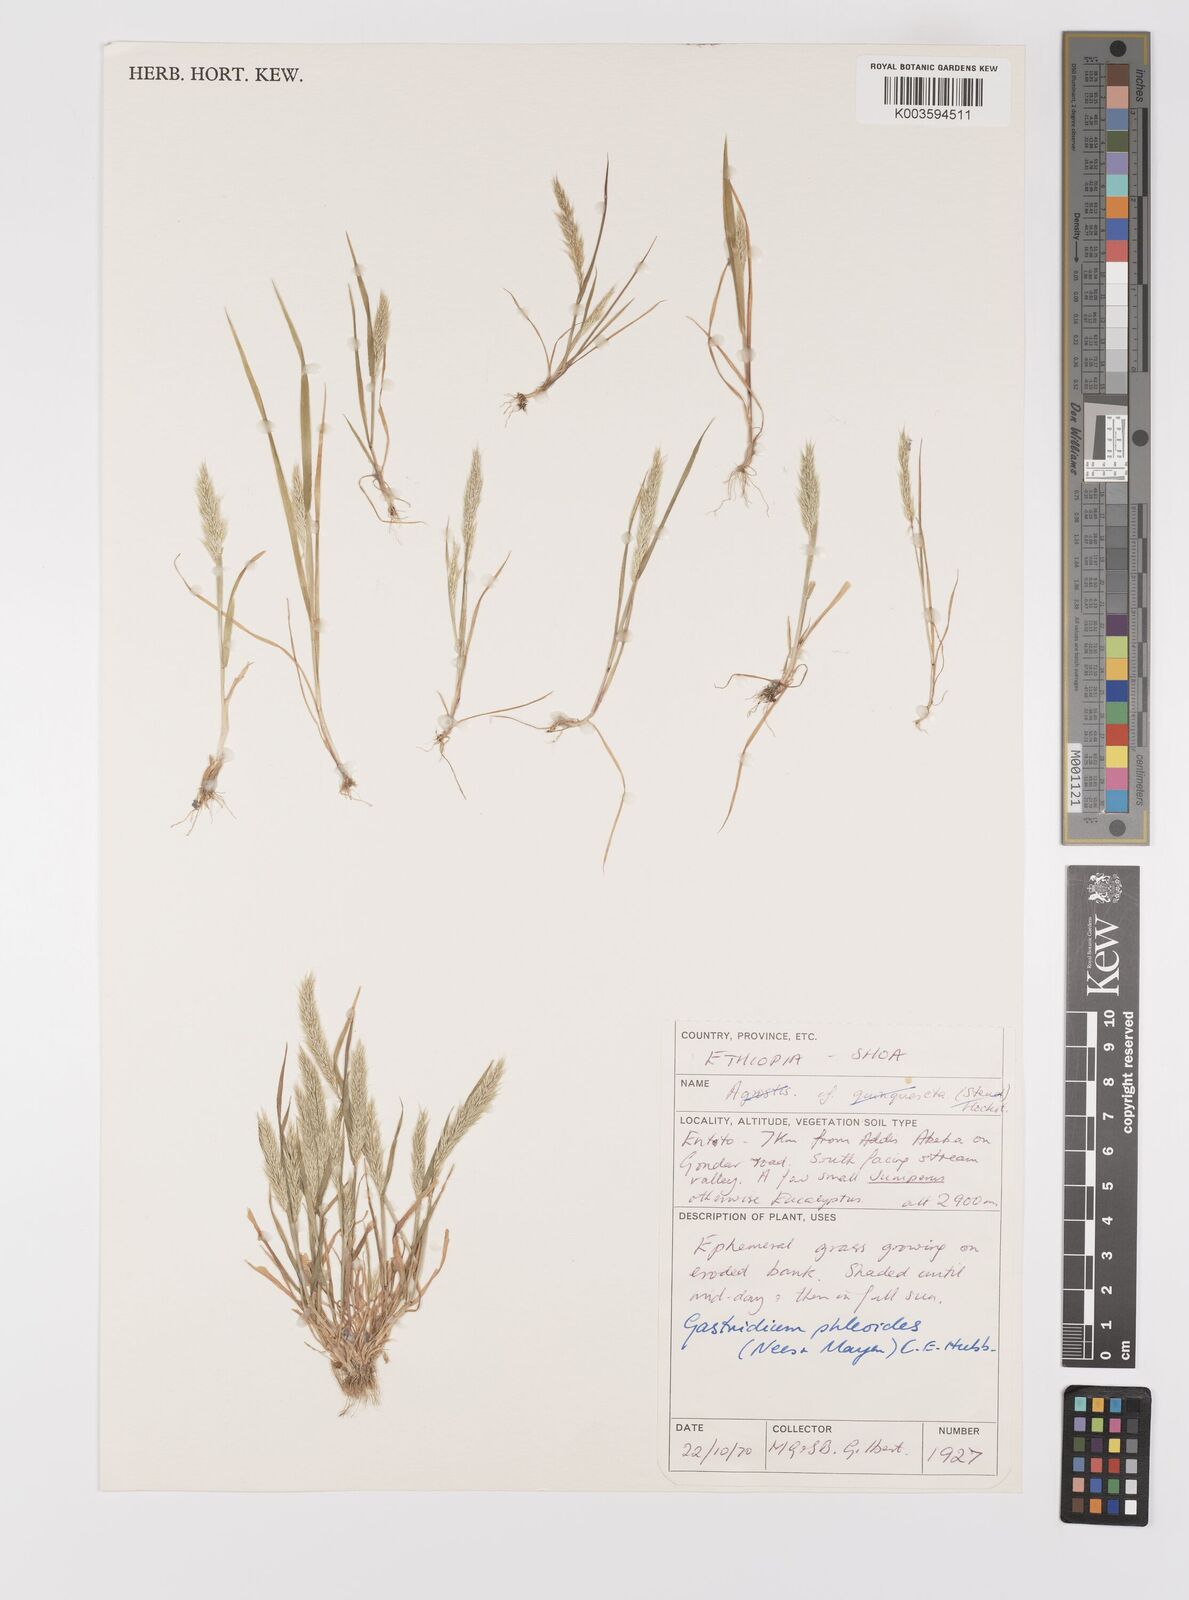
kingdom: Plantae
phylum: Tracheophyta
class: Liliopsida
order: Poales
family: Poaceae
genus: Gastridium
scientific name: Gastridium phleoides
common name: Nit grass
